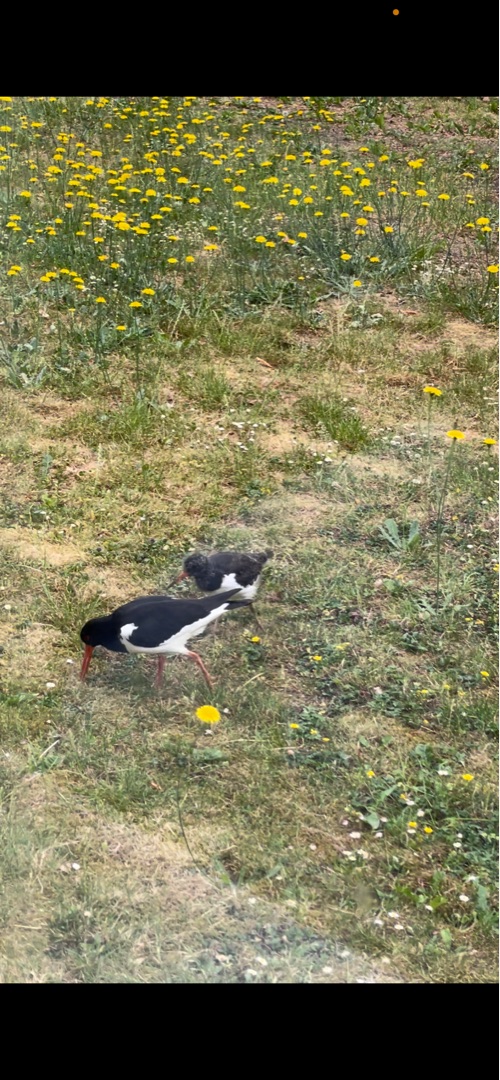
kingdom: Animalia
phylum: Chordata
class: Aves
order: Charadriiformes
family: Haematopodidae
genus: Haematopus
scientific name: Haematopus ostralegus
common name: Strandskade
